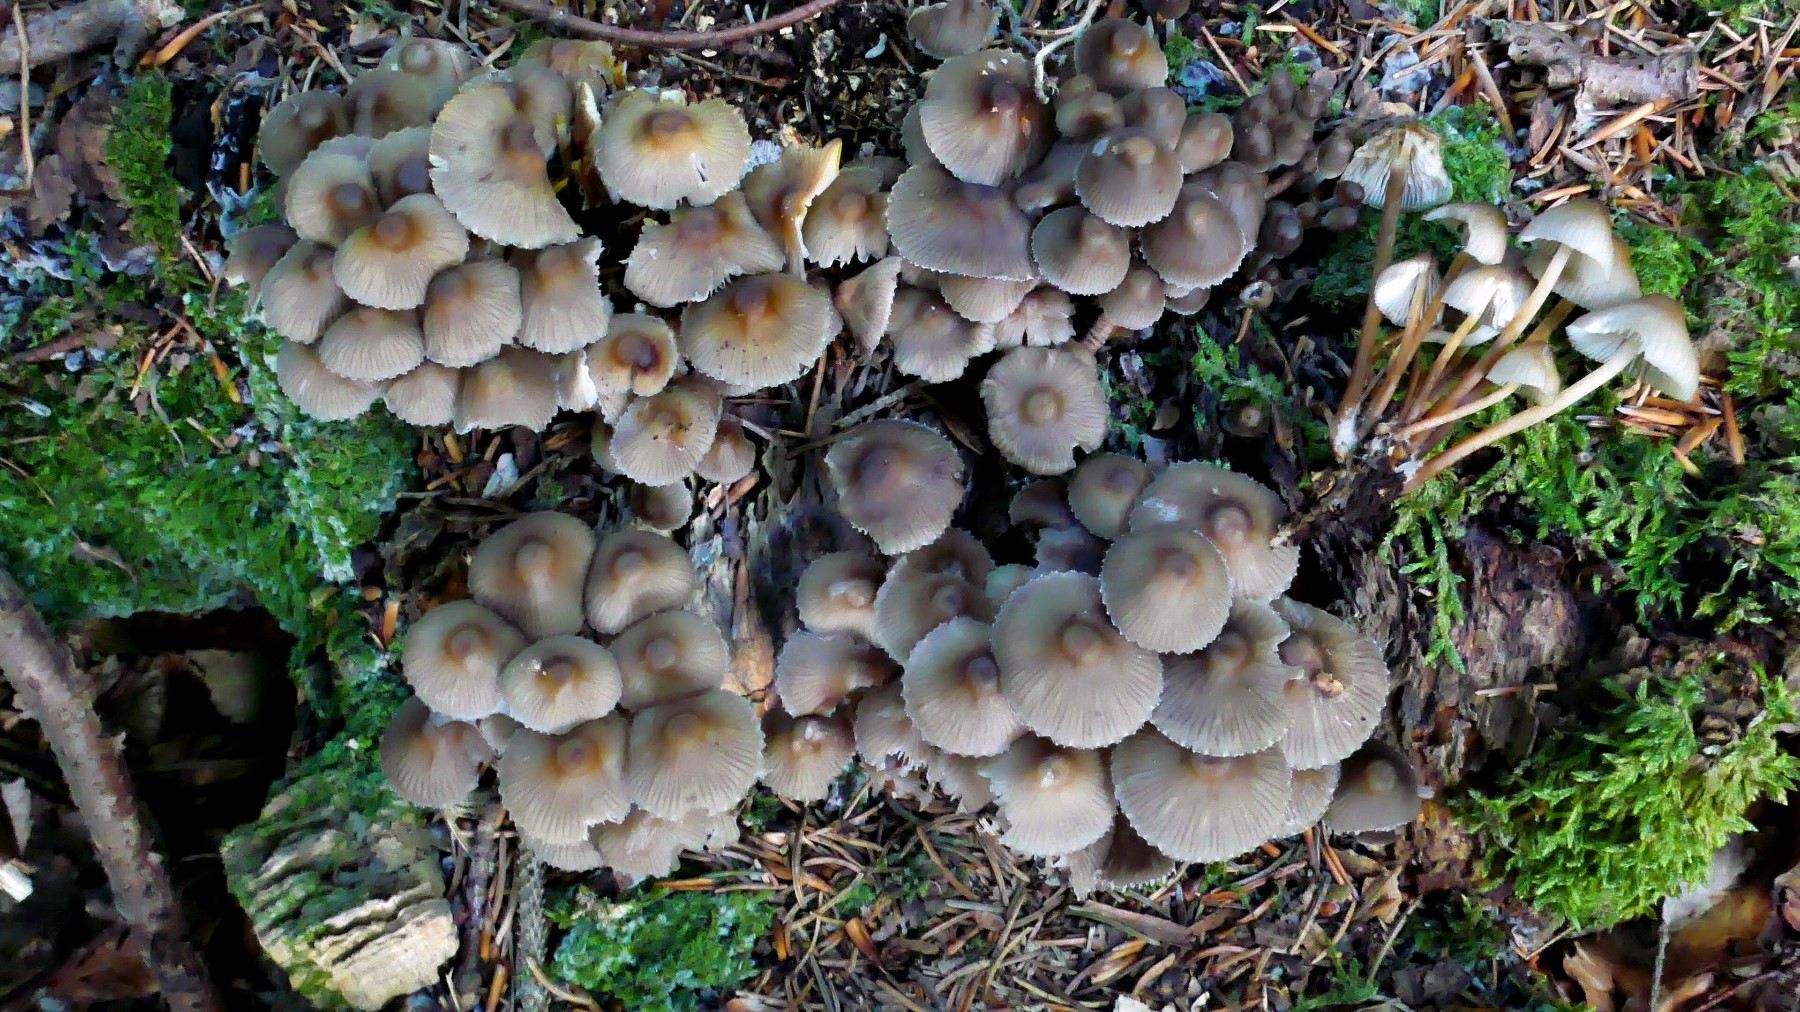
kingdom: Fungi
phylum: Basidiomycota
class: Agaricomycetes
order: Agaricales
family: Mycenaceae
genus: Mycena
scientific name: Mycena inclinata
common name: nikkende huesvamp
